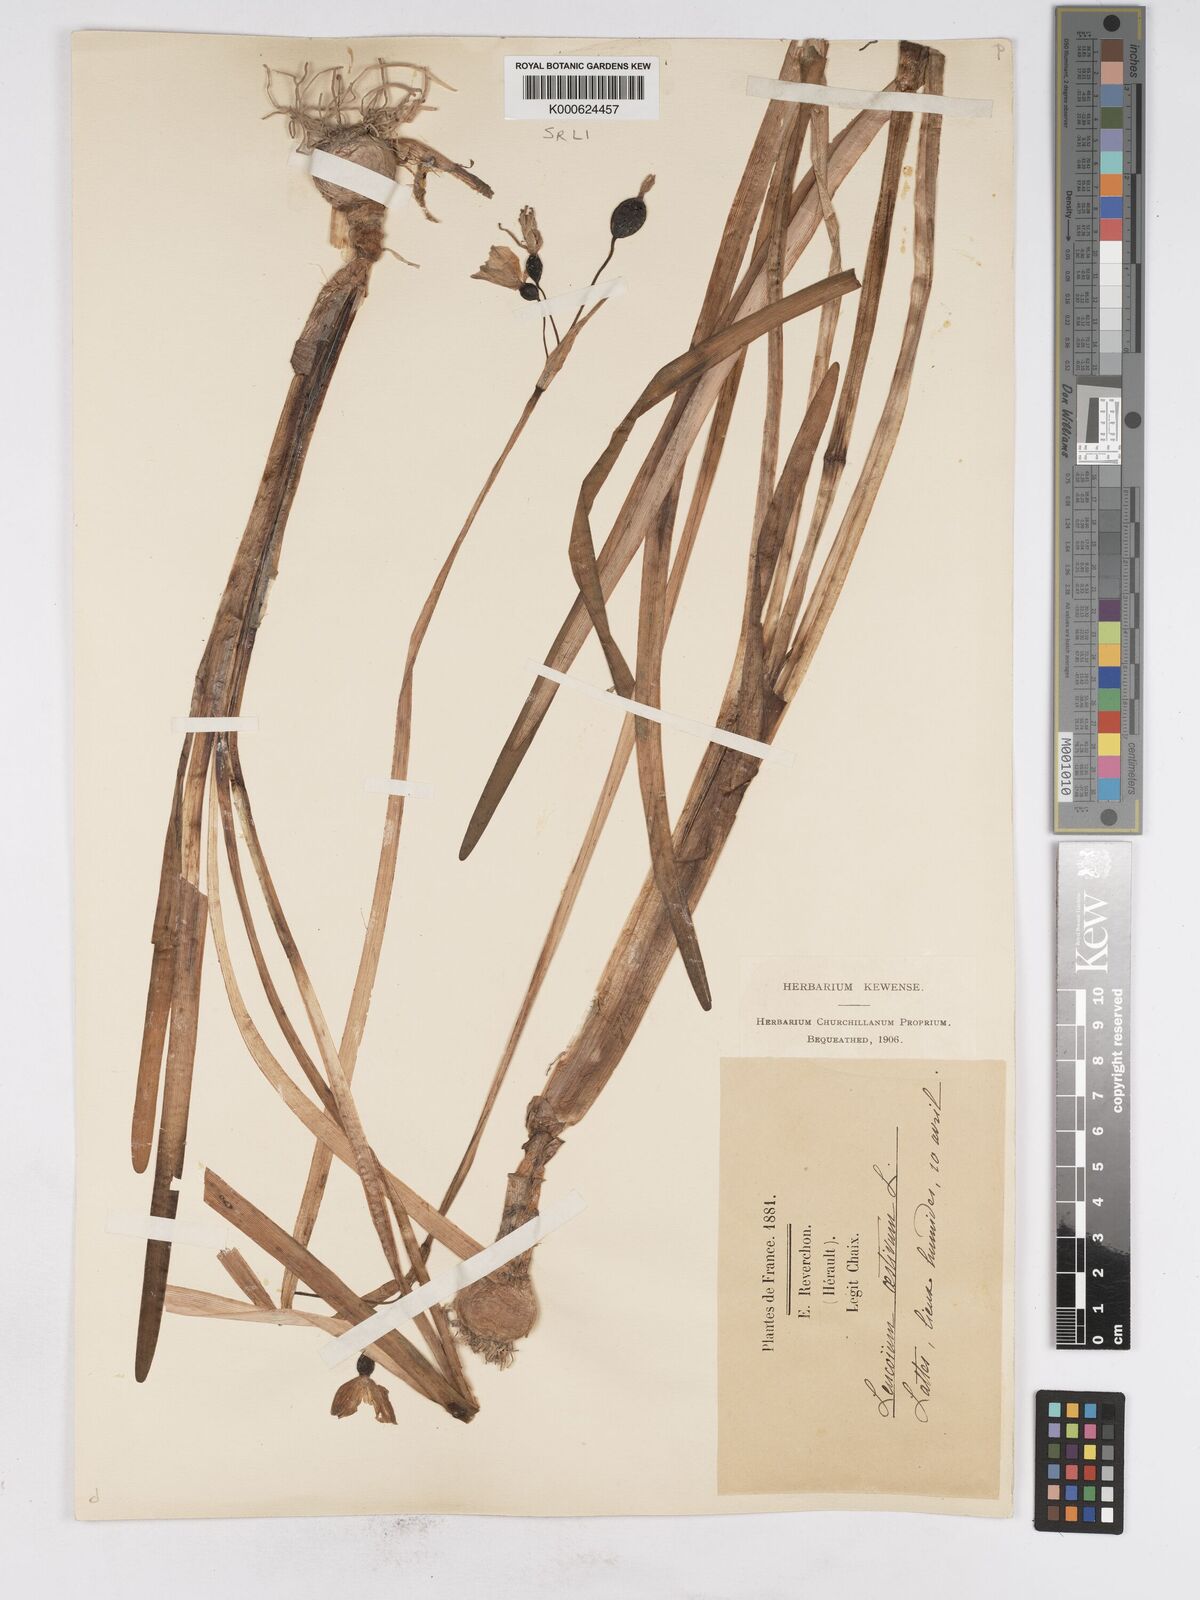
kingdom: Plantae
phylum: Tracheophyta
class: Liliopsida
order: Asparagales
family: Amaryllidaceae
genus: Leucojum
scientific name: Leucojum aestivum
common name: Summer snowflake
